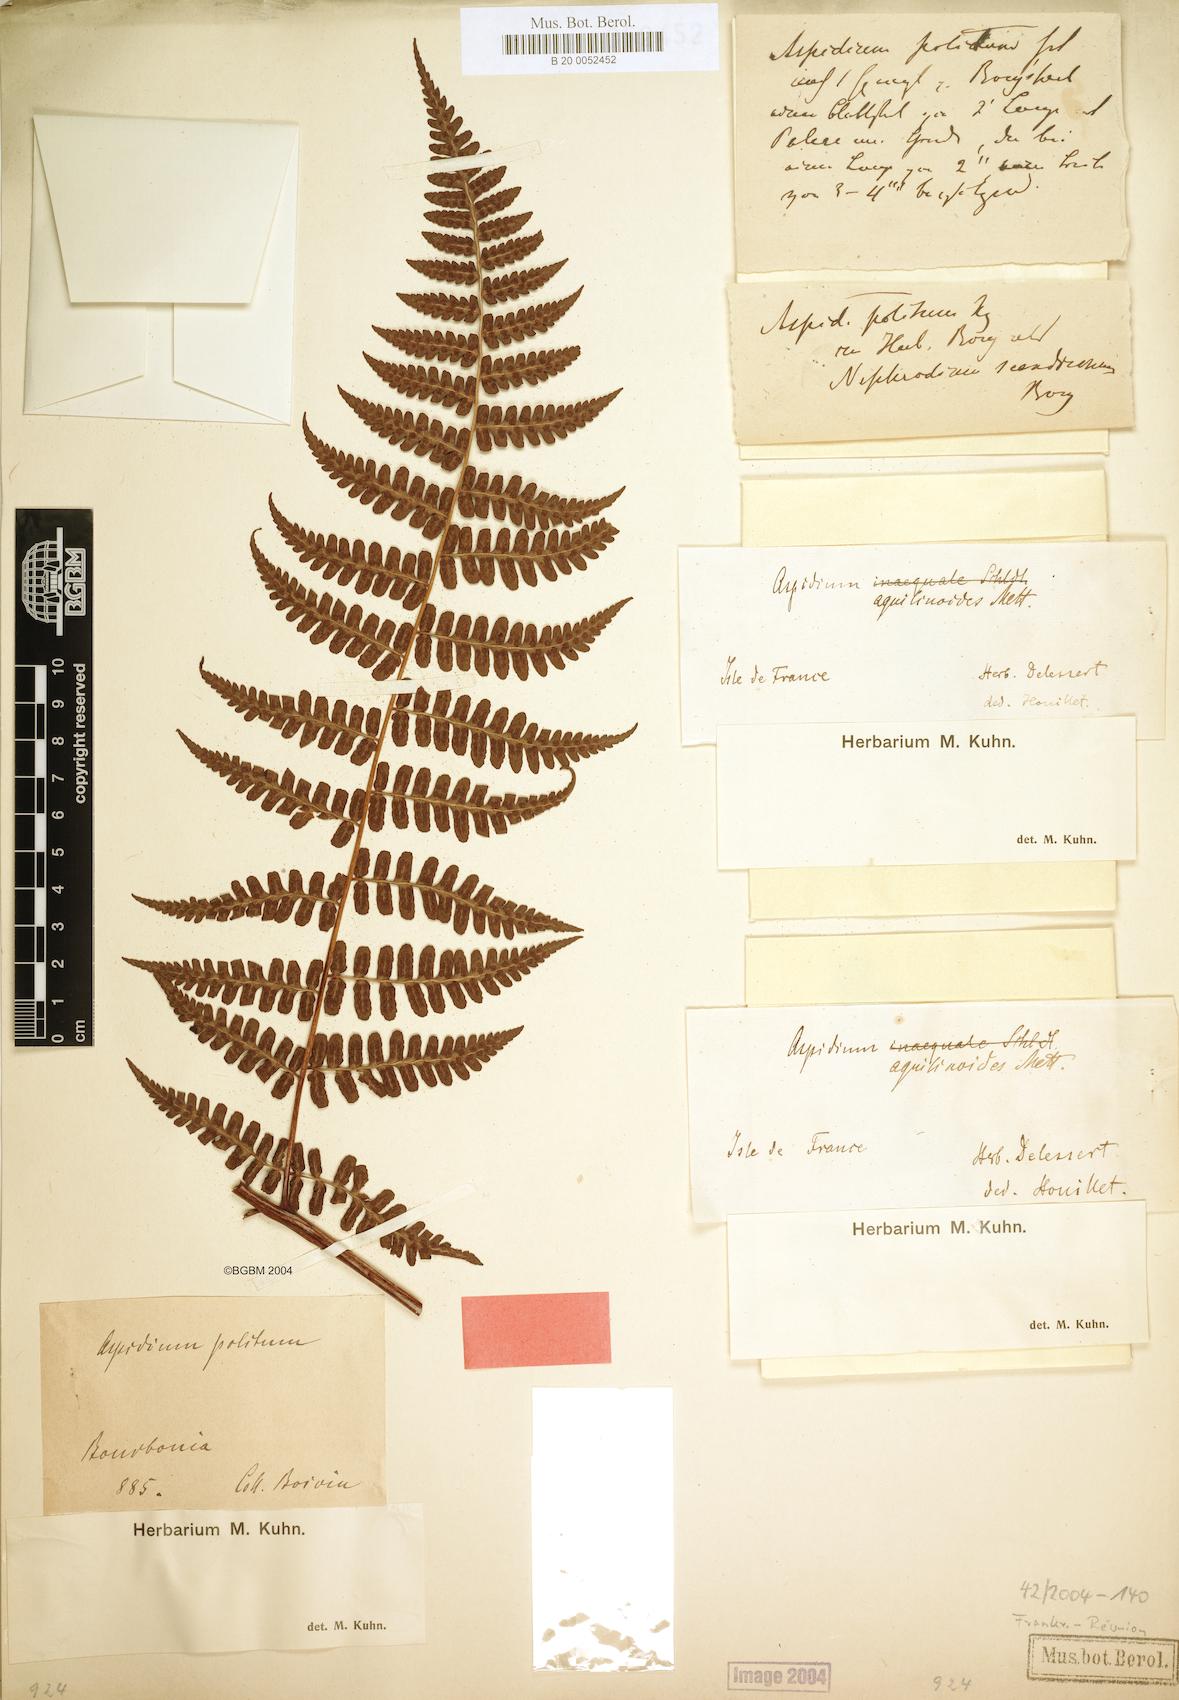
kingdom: Plantae
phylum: Tracheophyta
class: Polypodiopsida
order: Polypodiales
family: Dryopteridaceae
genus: Rumohra
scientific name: Rumohra adiantiformis
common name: Leather fern
